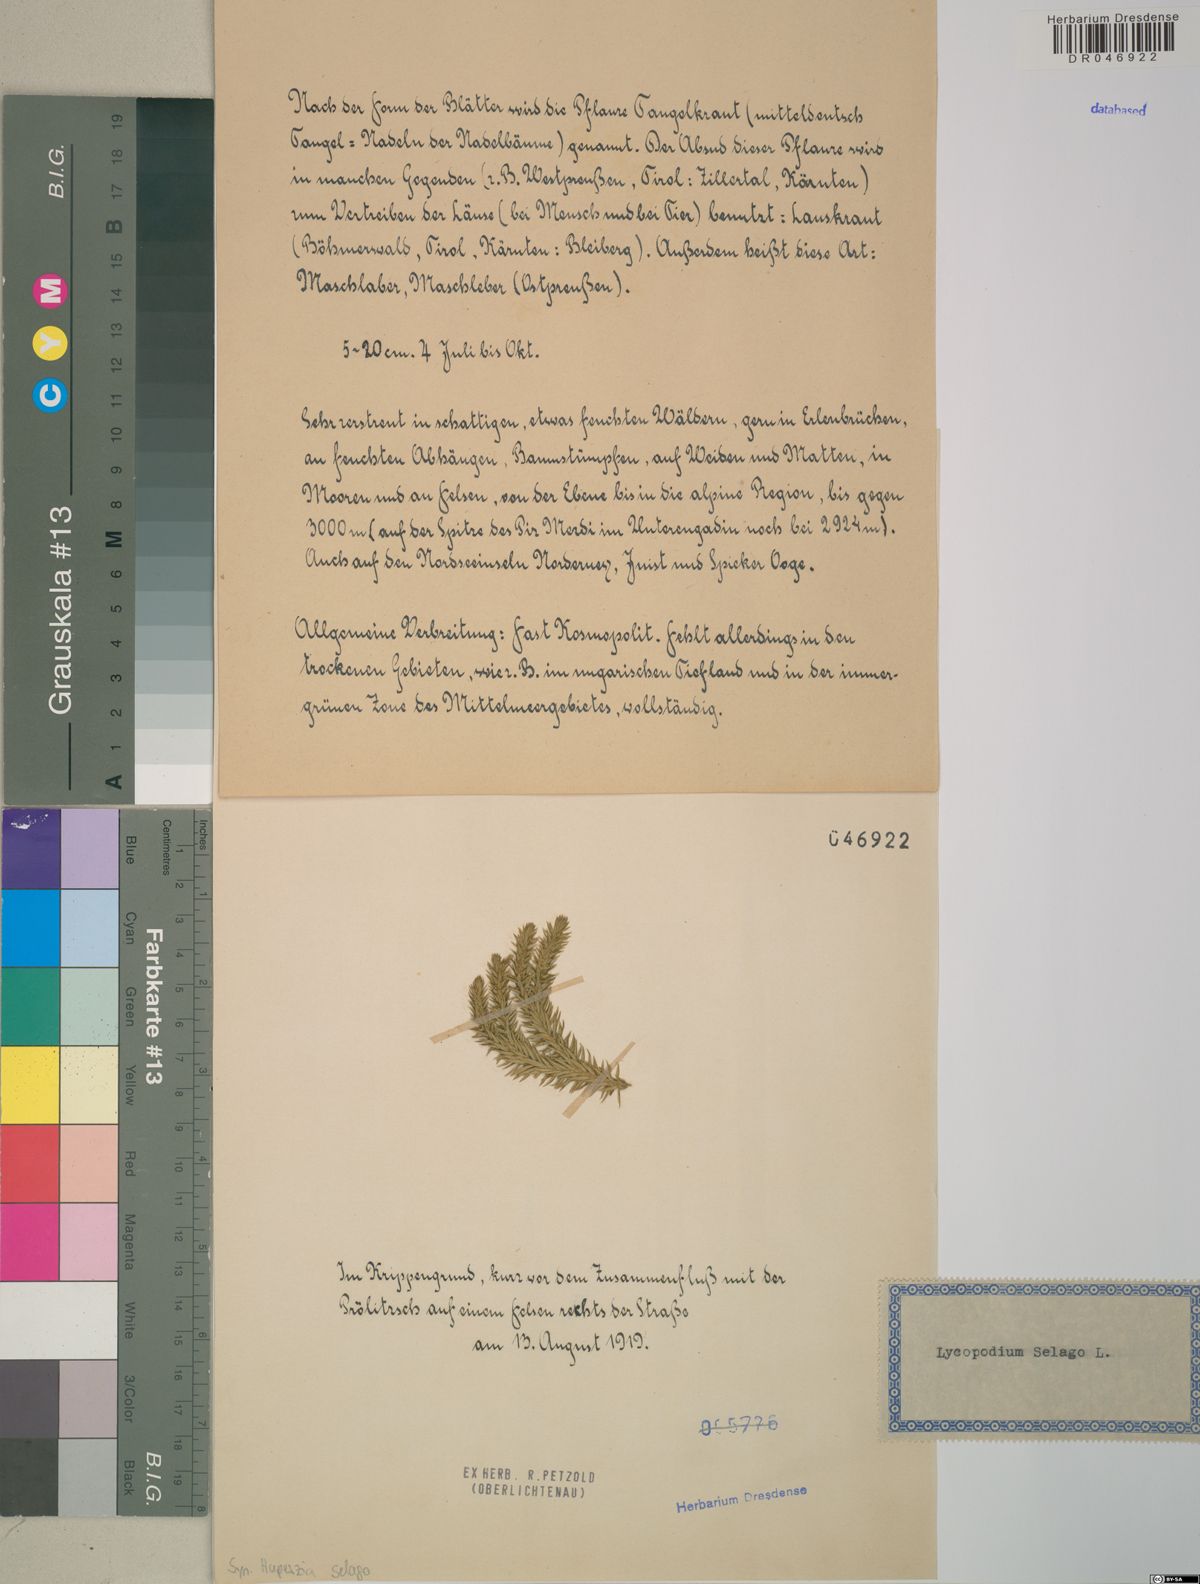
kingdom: Plantae
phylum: Tracheophyta
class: Lycopodiopsida
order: Lycopodiales
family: Lycopodiaceae
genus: Huperzia
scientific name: Huperzia selago
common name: Northern firmoss
